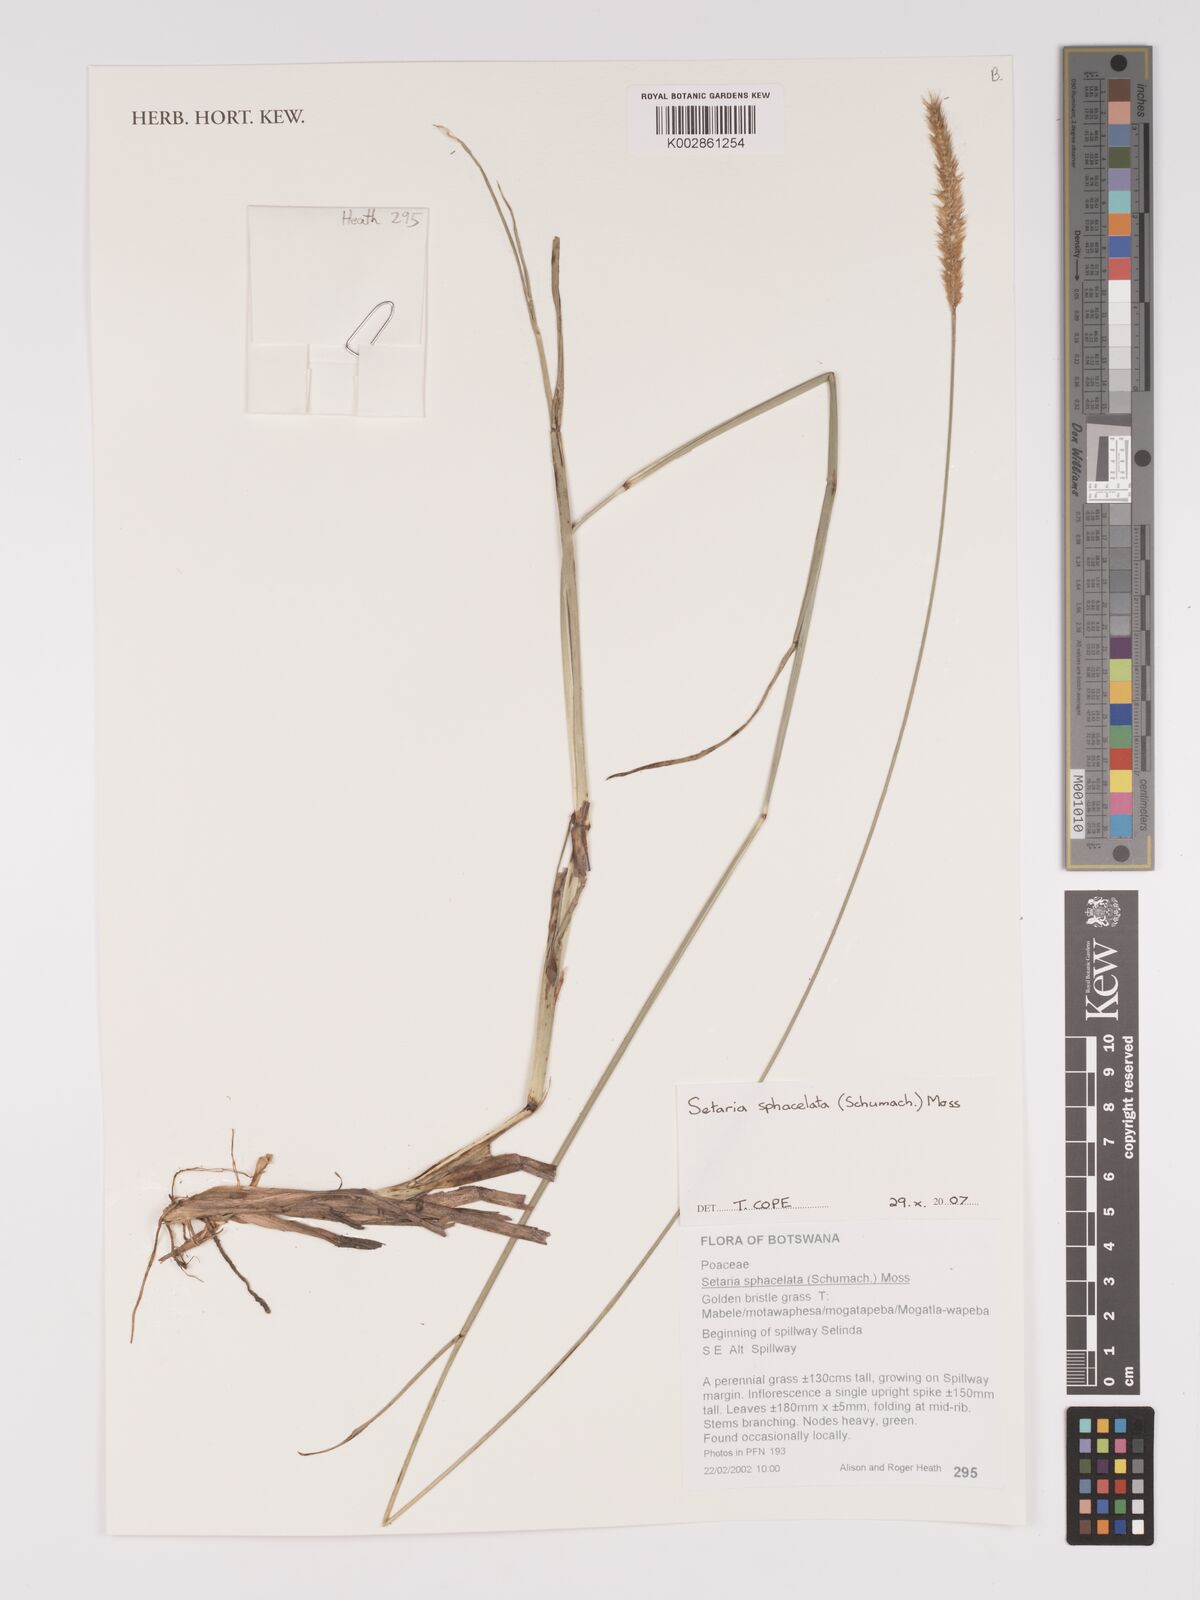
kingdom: Plantae
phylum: Tracheophyta
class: Liliopsida
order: Poales
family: Poaceae
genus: Setaria
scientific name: Setaria sphacelata
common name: African bristlegrass
